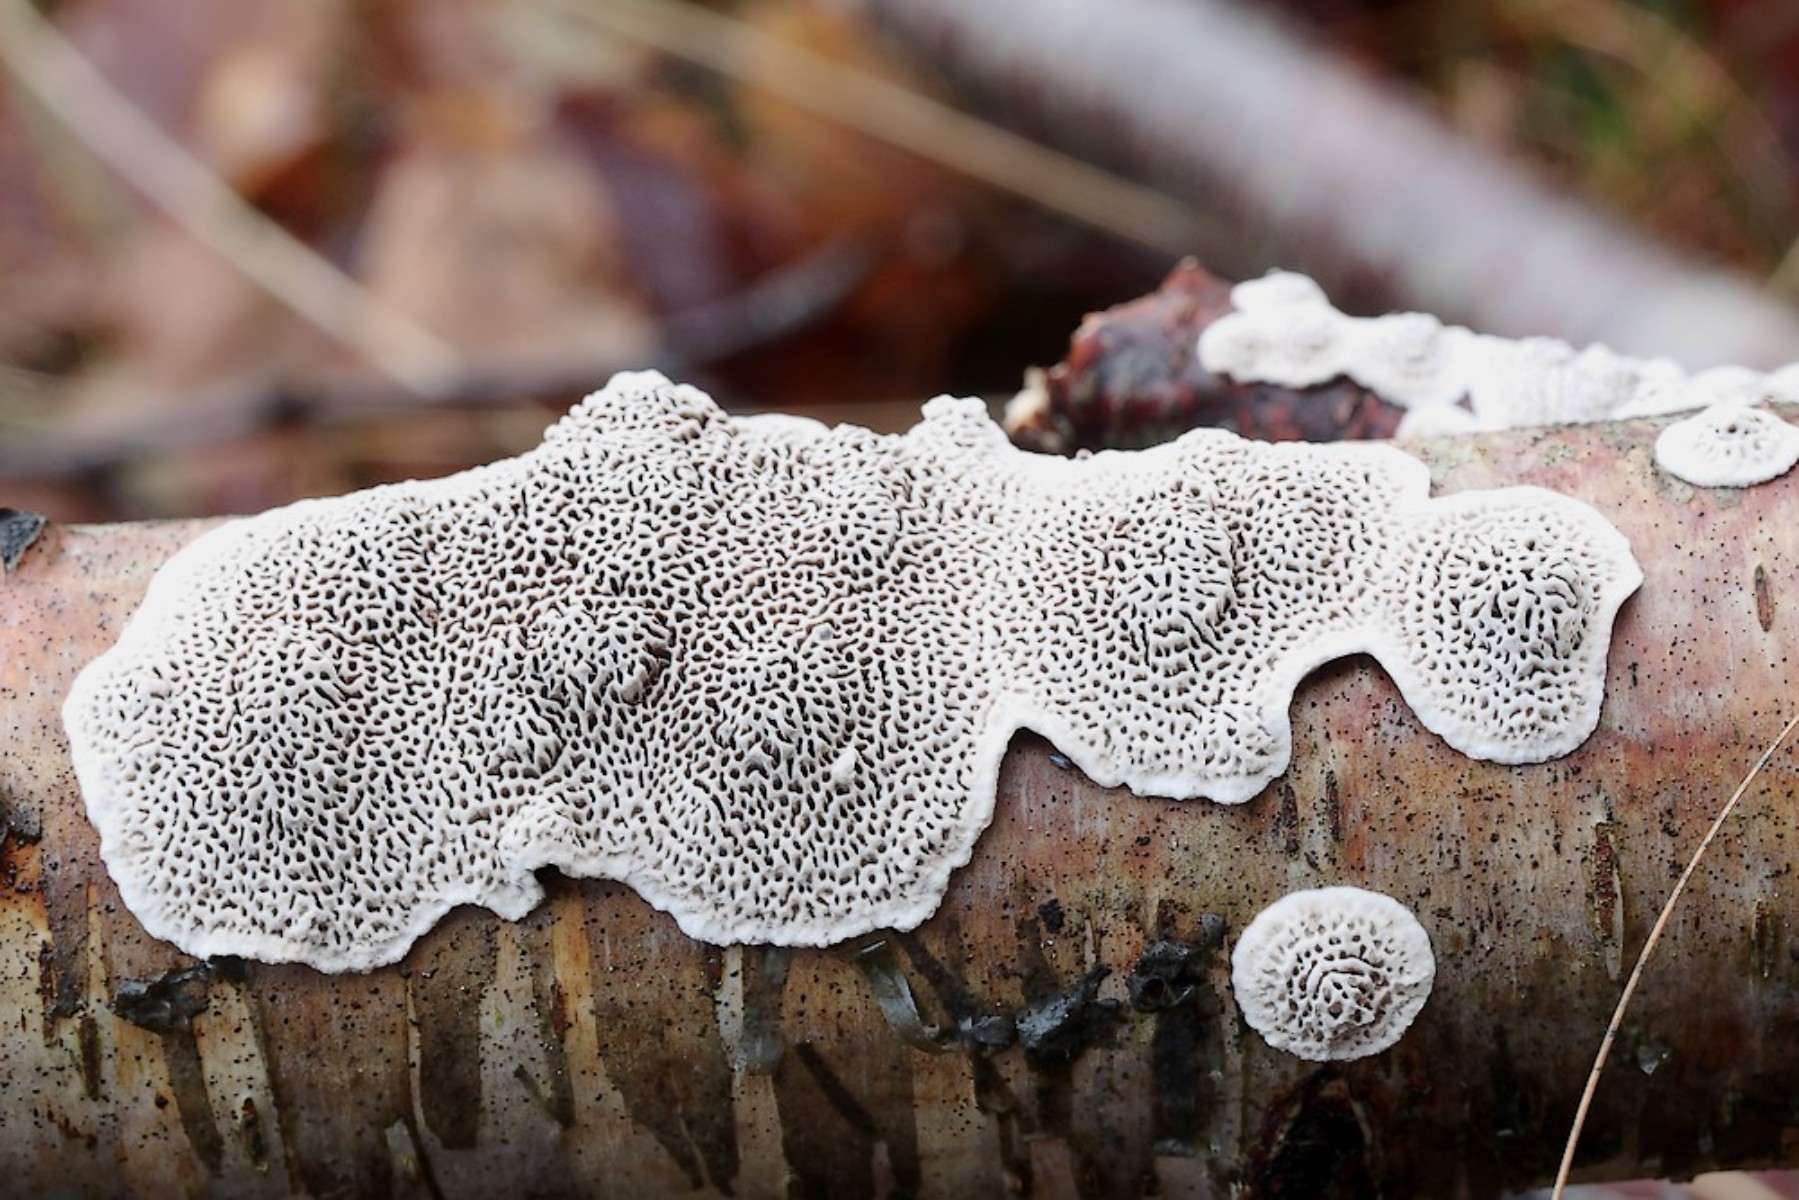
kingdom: Fungi
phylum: Basidiomycota
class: Agaricomycetes
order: Polyporales
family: Polyporaceae
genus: Podofomes
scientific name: Podofomes mollis
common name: blød begporesvamp
